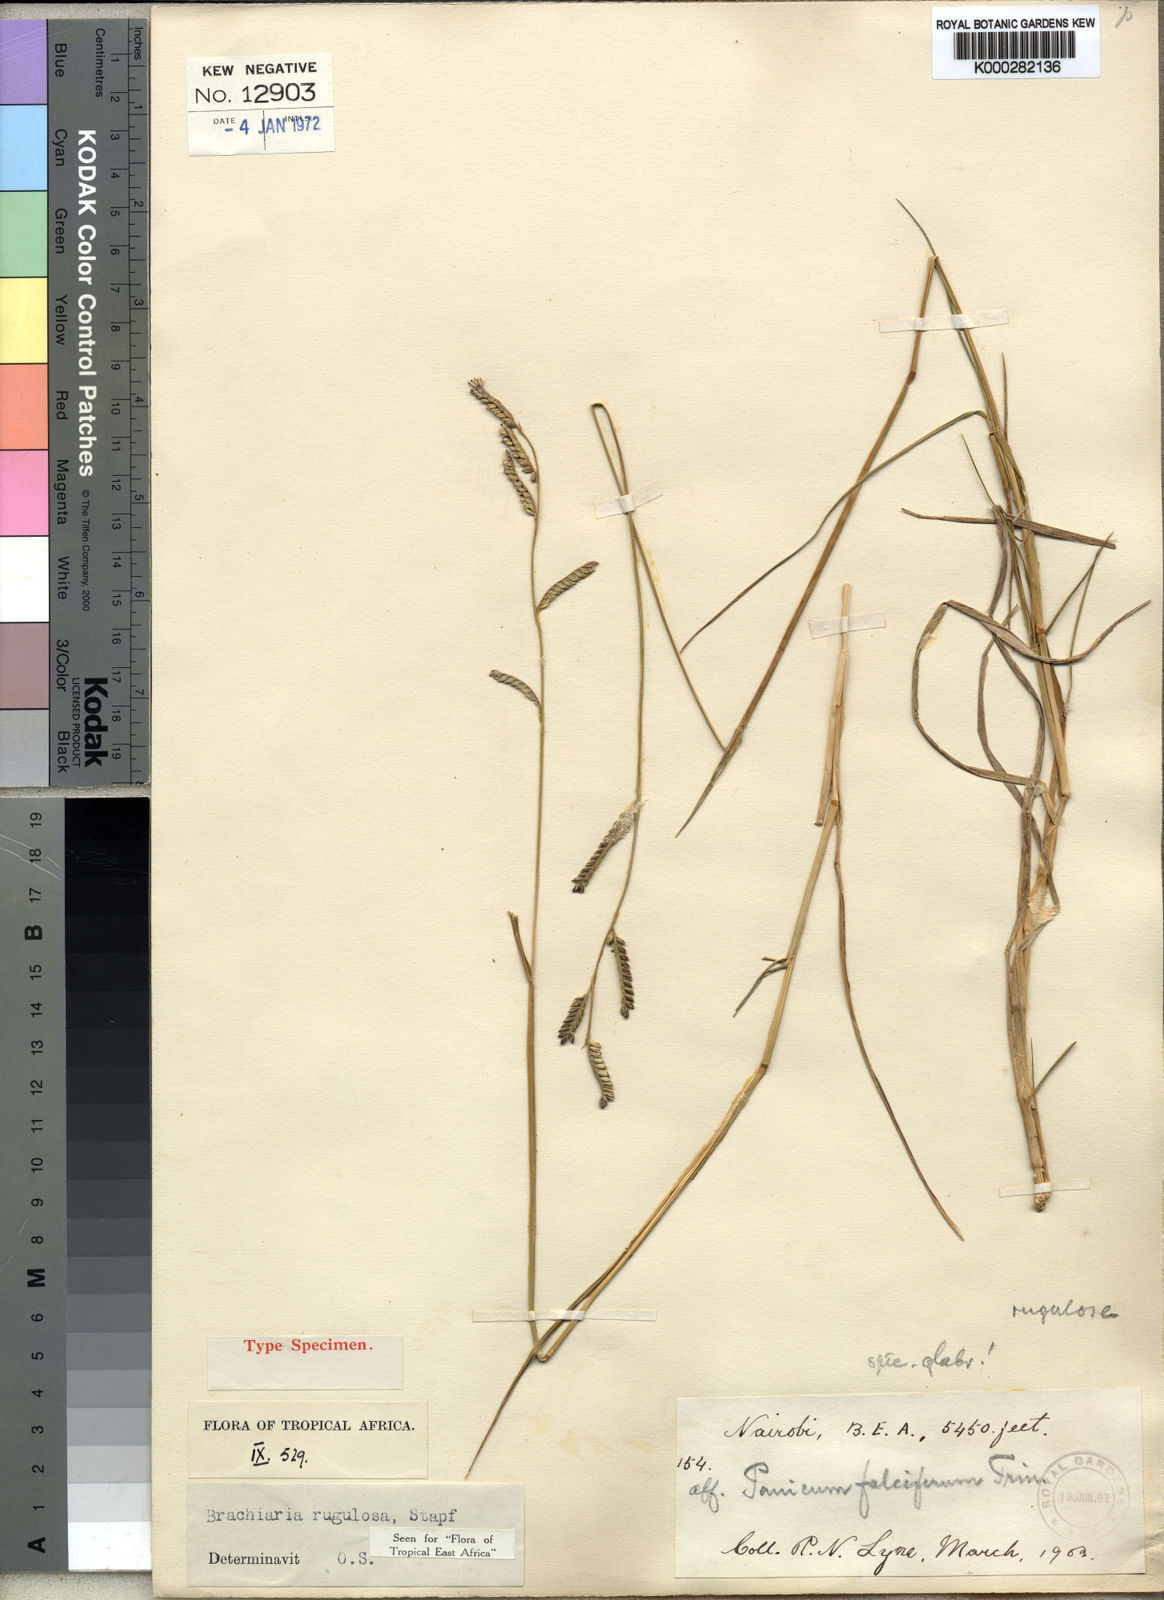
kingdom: Plantae
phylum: Tracheophyta
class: Liliopsida
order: Poales
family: Poaceae
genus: Urochloa
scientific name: Urochloa rugulosa
